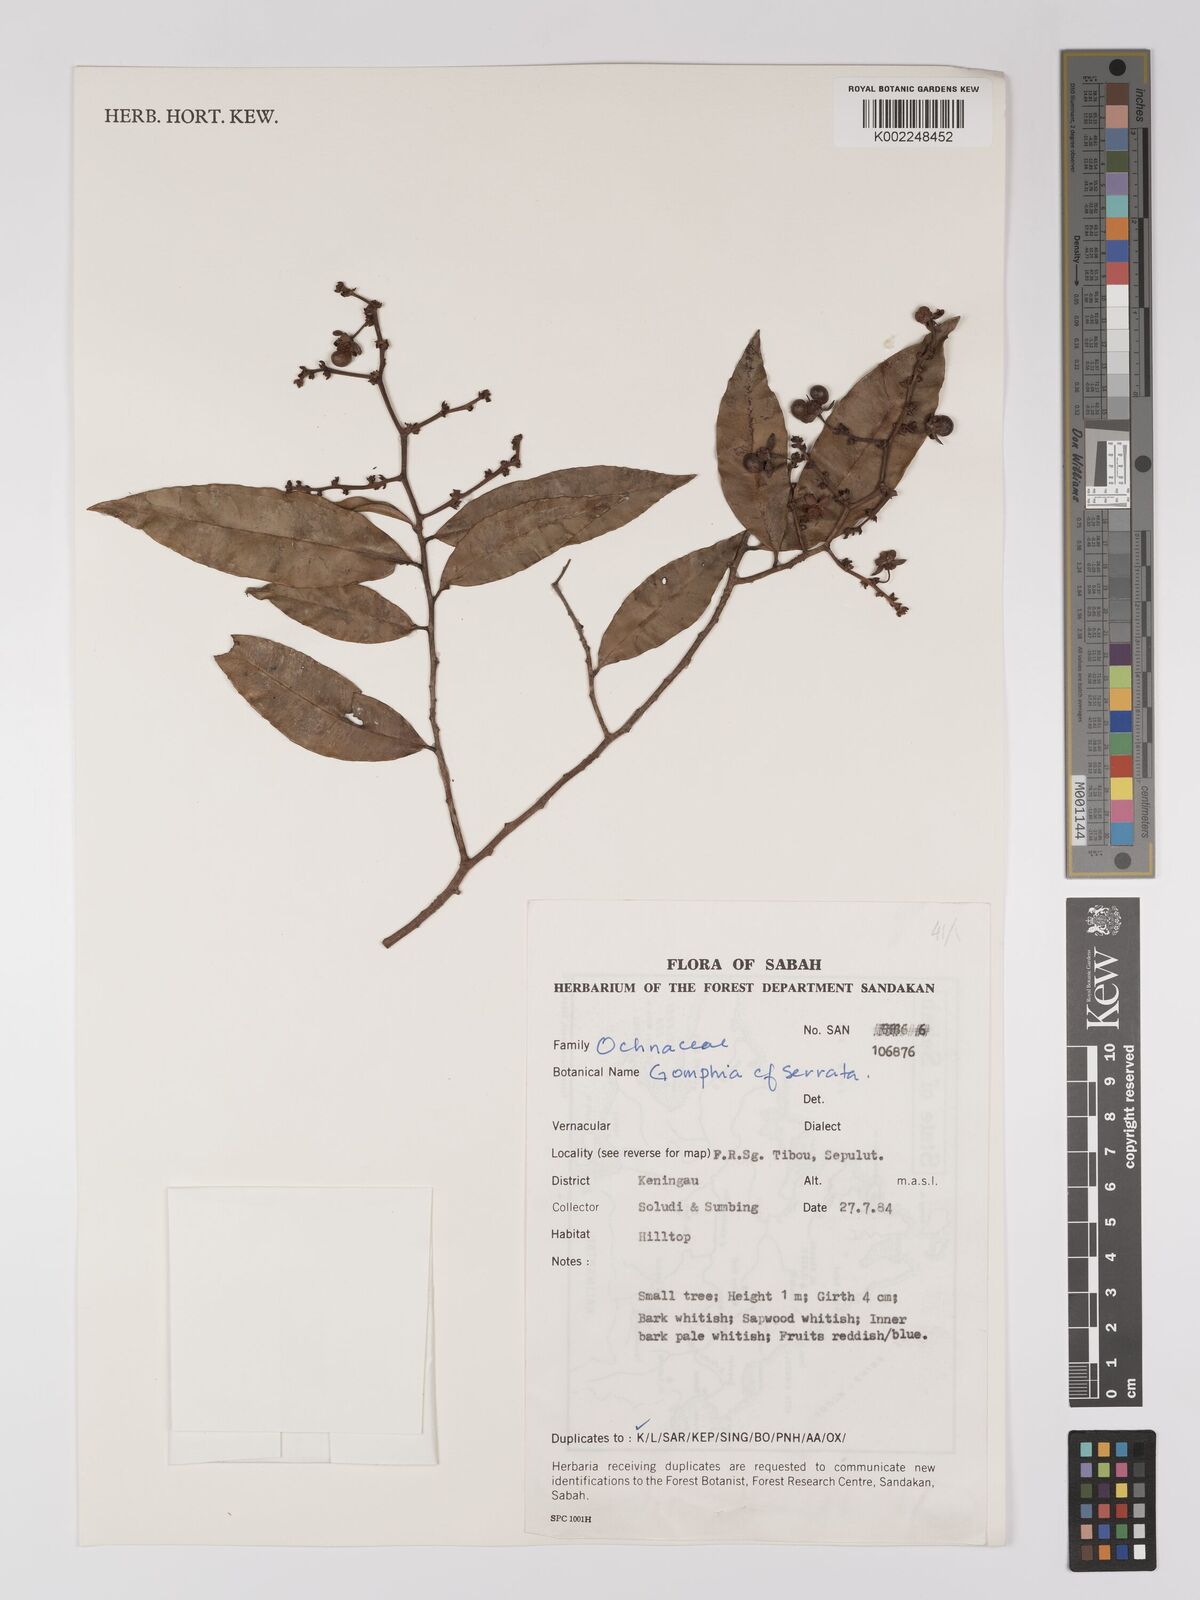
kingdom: Plantae
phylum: Tracheophyta
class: Magnoliopsida
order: Malpighiales
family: Ochnaceae
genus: Gomphia
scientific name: Gomphia serrata
